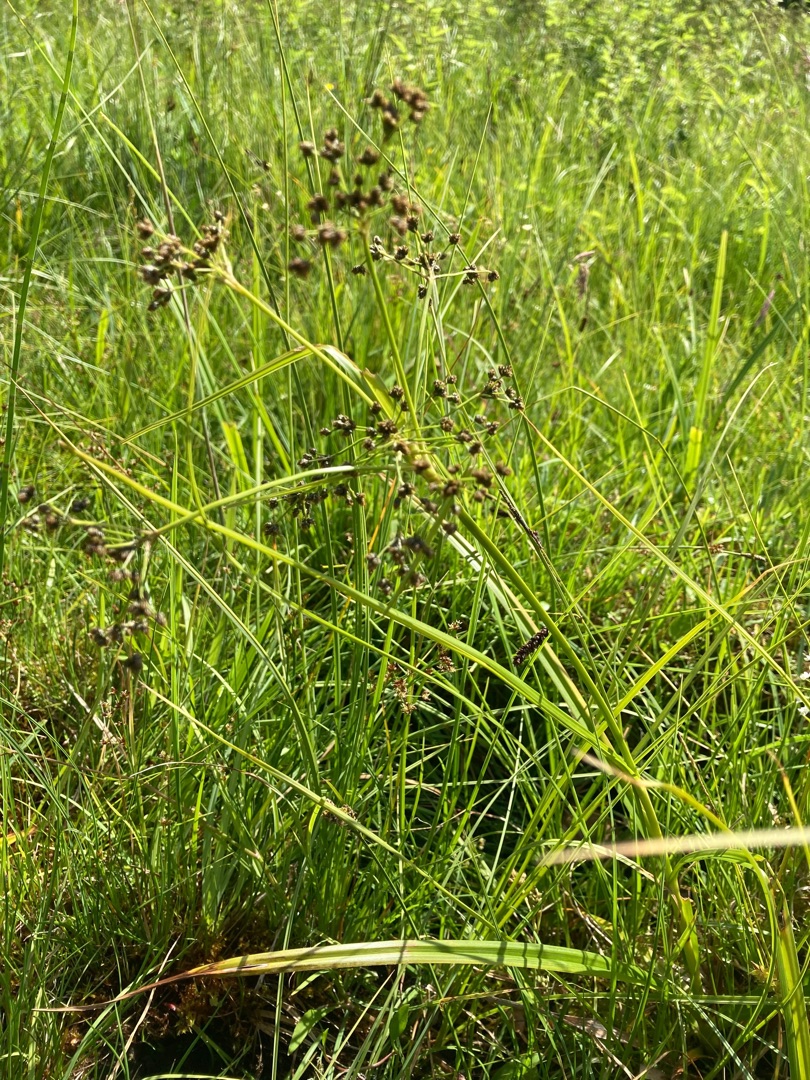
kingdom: Plantae
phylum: Tracheophyta
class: Liliopsida
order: Poales
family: Cyperaceae
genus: Scirpus
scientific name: Scirpus sylvaticus
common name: Skov-kogleaks
